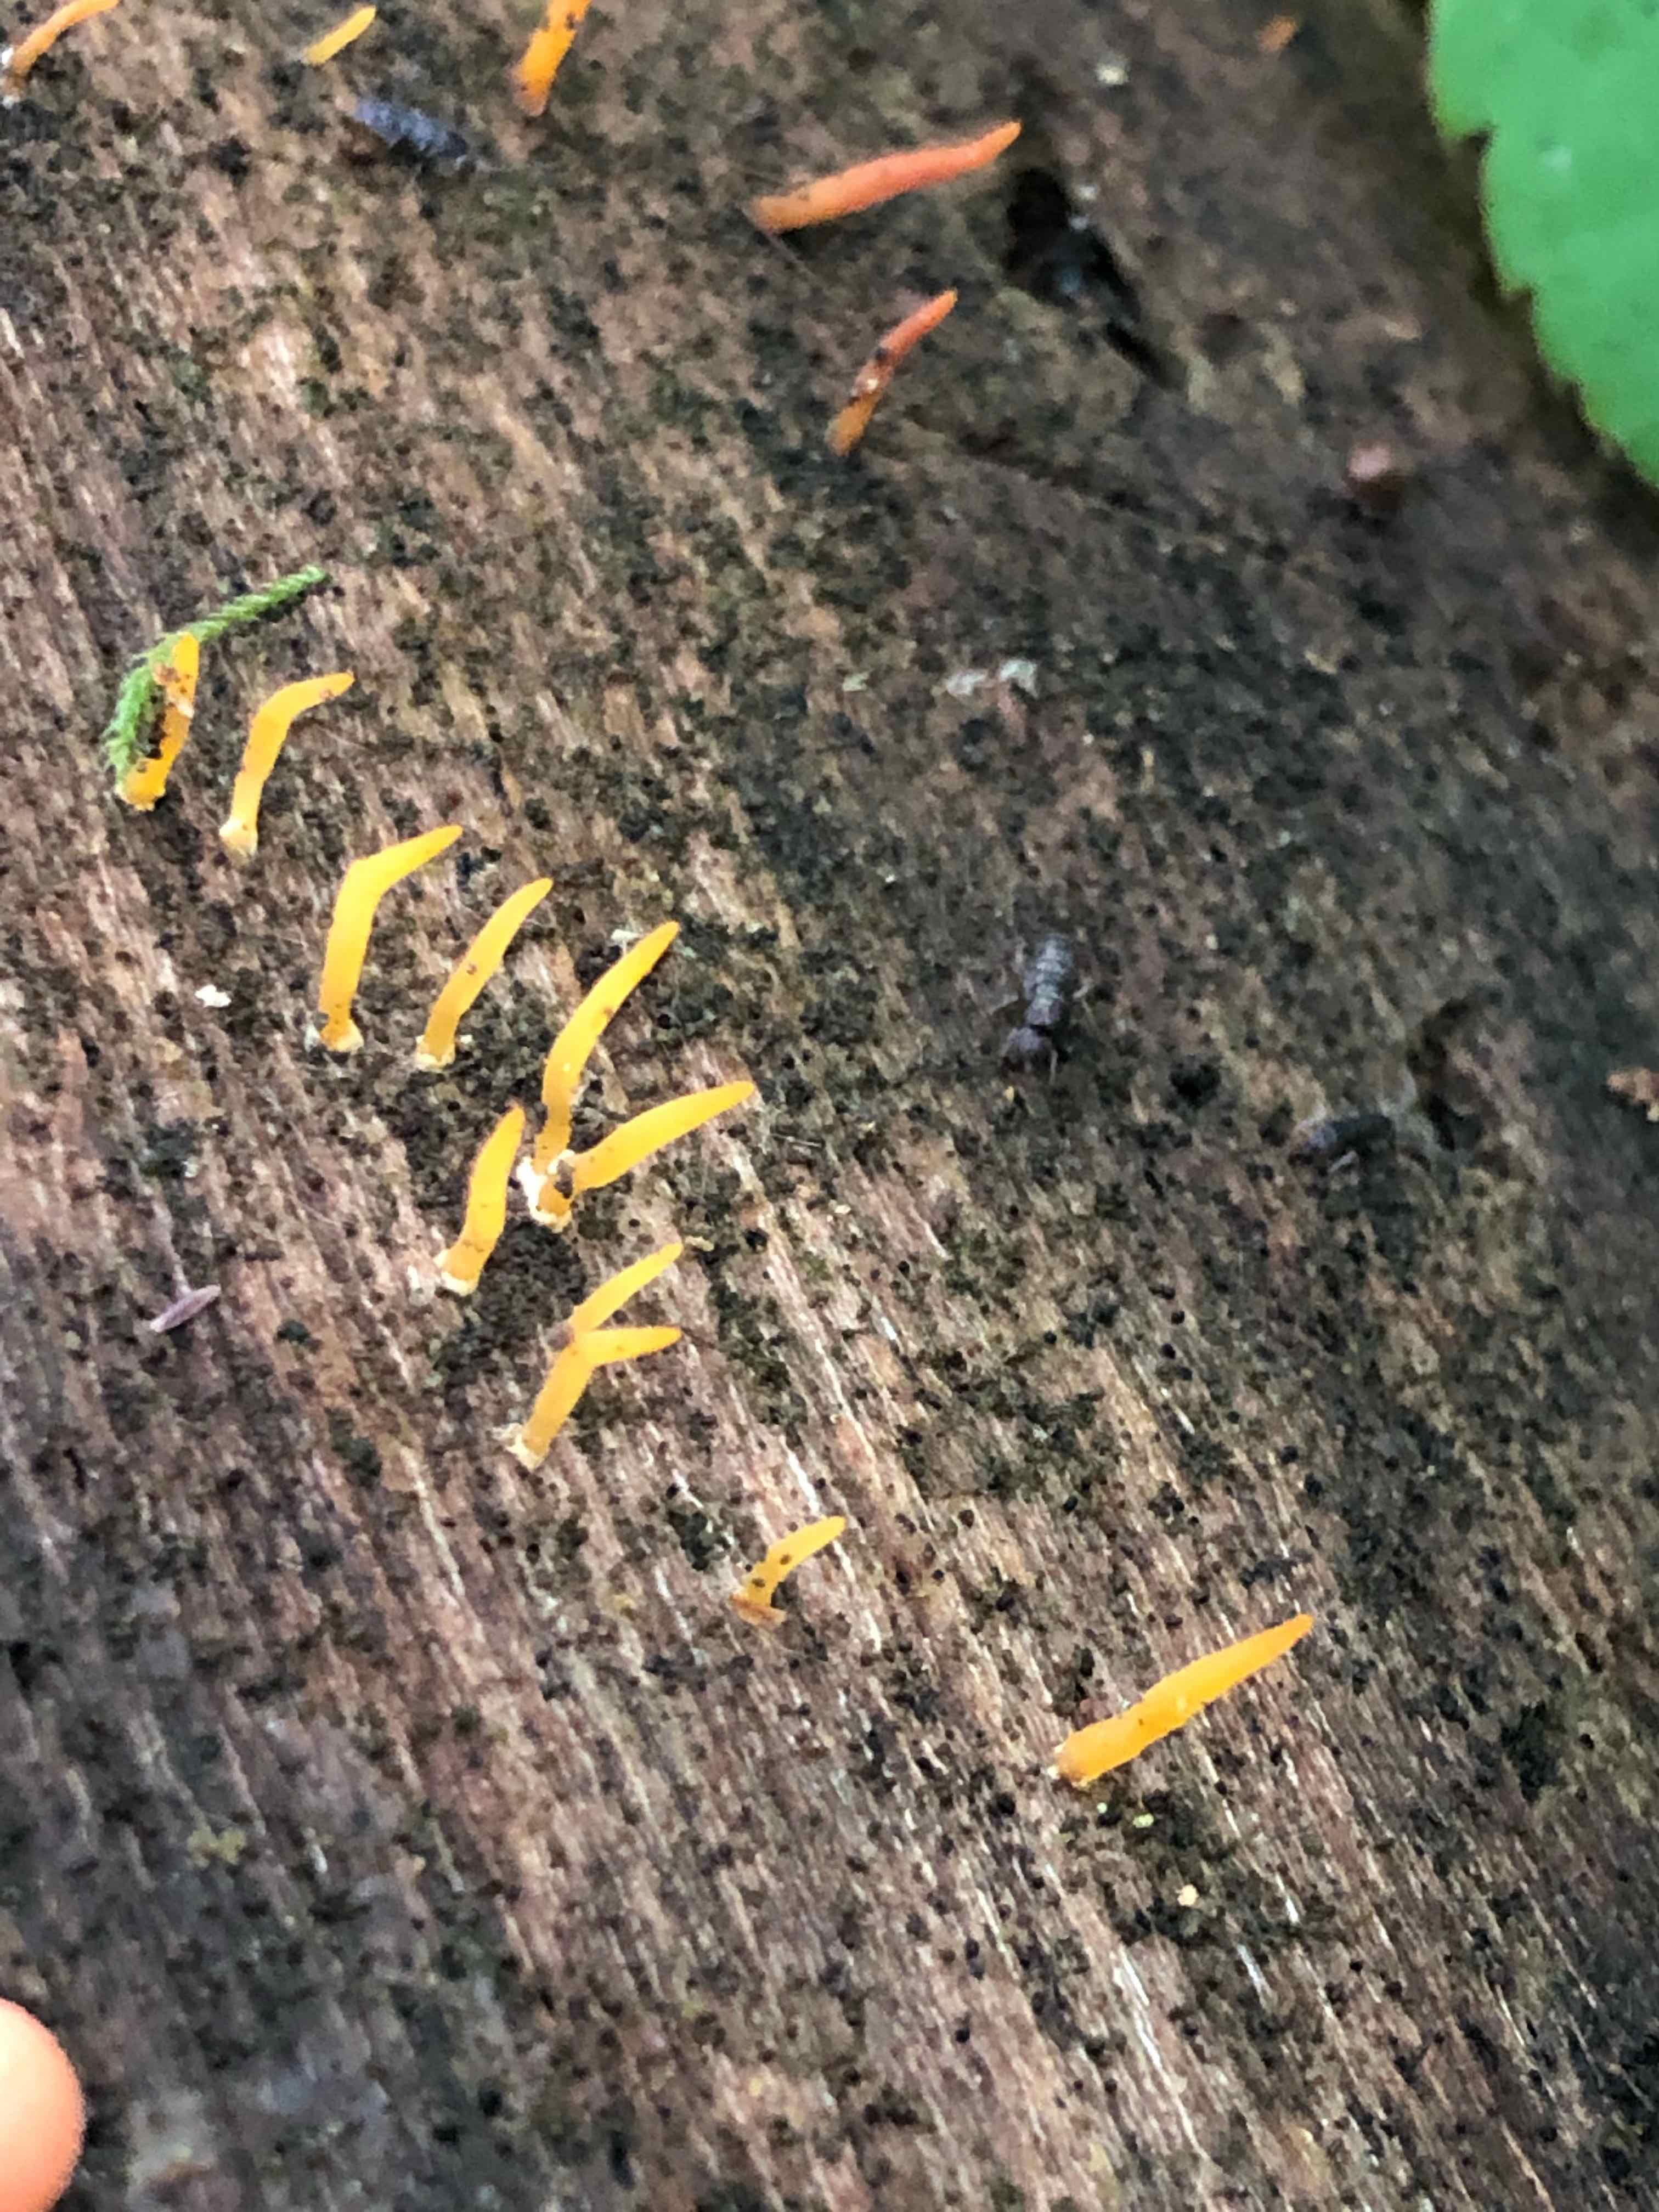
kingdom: Fungi
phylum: Basidiomycota
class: Dacrymycetes
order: Dacrymycetales
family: Dacrymycetaceae
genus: Calocera
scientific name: Calocera cornea
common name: liden guldgaffel
